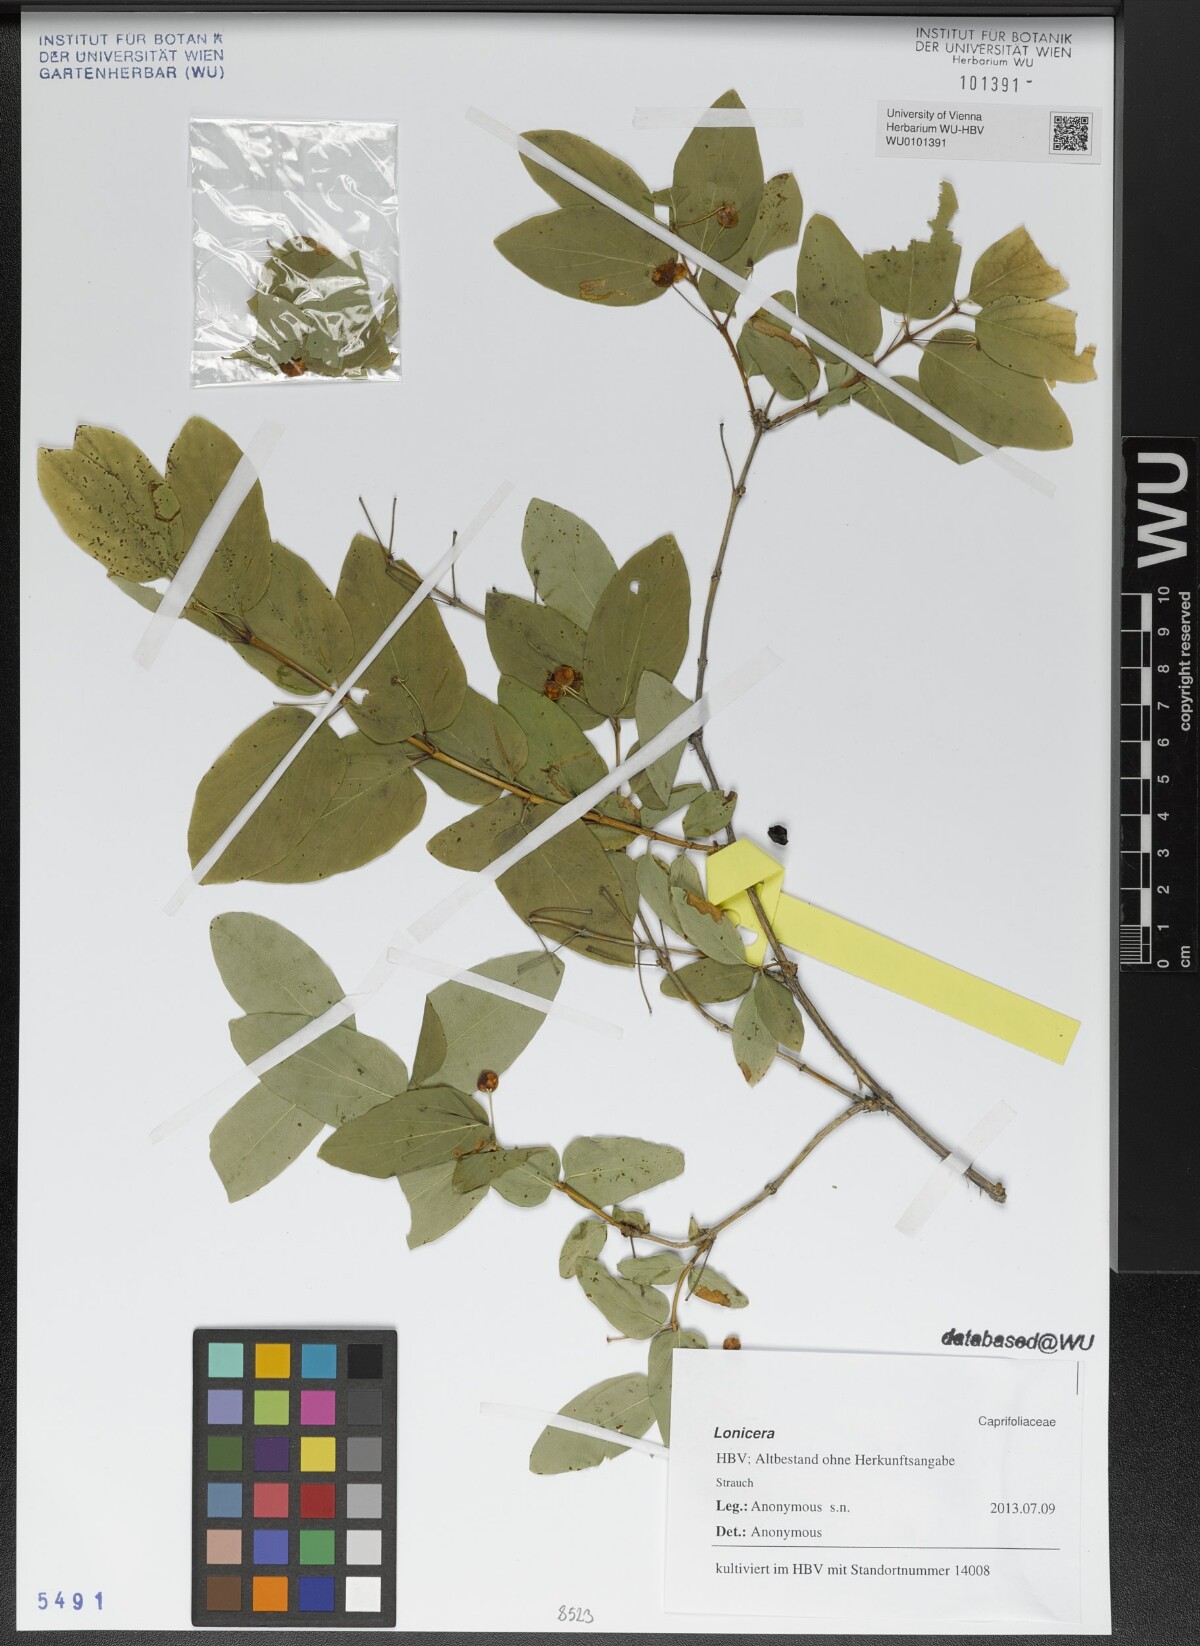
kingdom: Plantae
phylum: Tracheophyta
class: Magnoliopsida
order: Dipsacales
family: Caprifoliaceae
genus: Lonicera
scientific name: Lonicera
